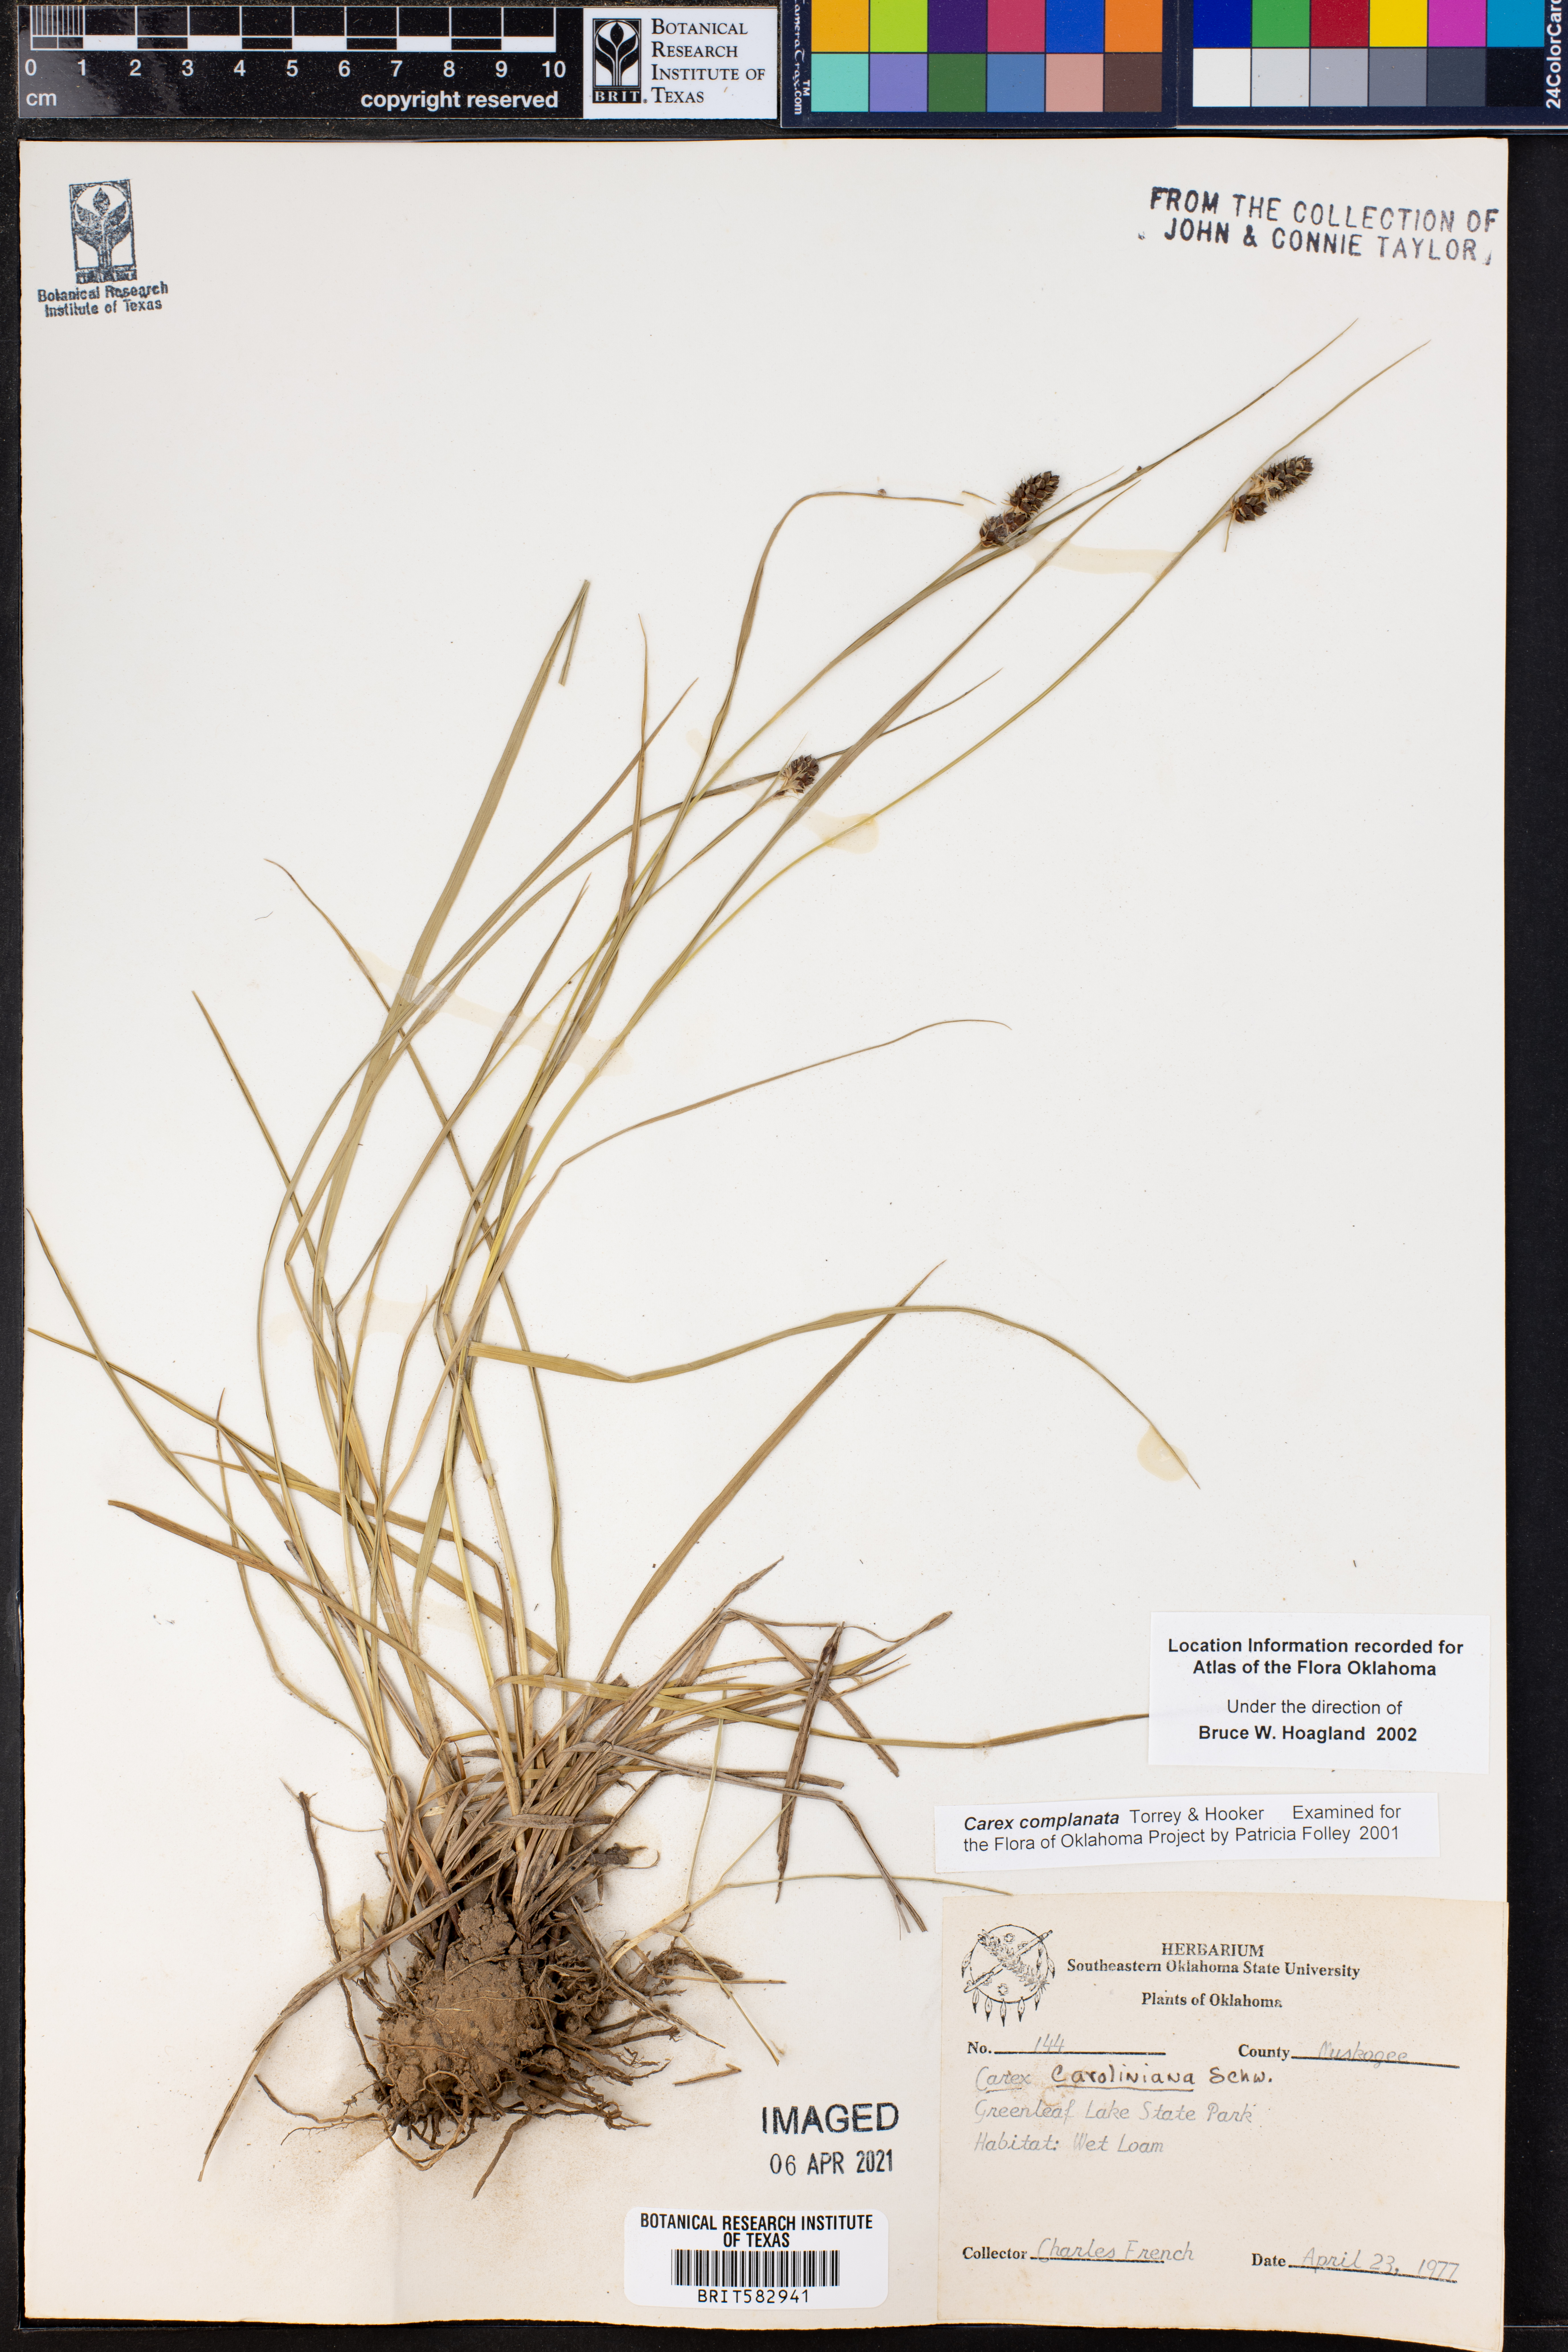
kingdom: Plantae
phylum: Tracheophyta
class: Liliopsida
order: Poales
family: Cyperaceae
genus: Carex
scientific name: Carex complanata
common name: Hirsute sedge
